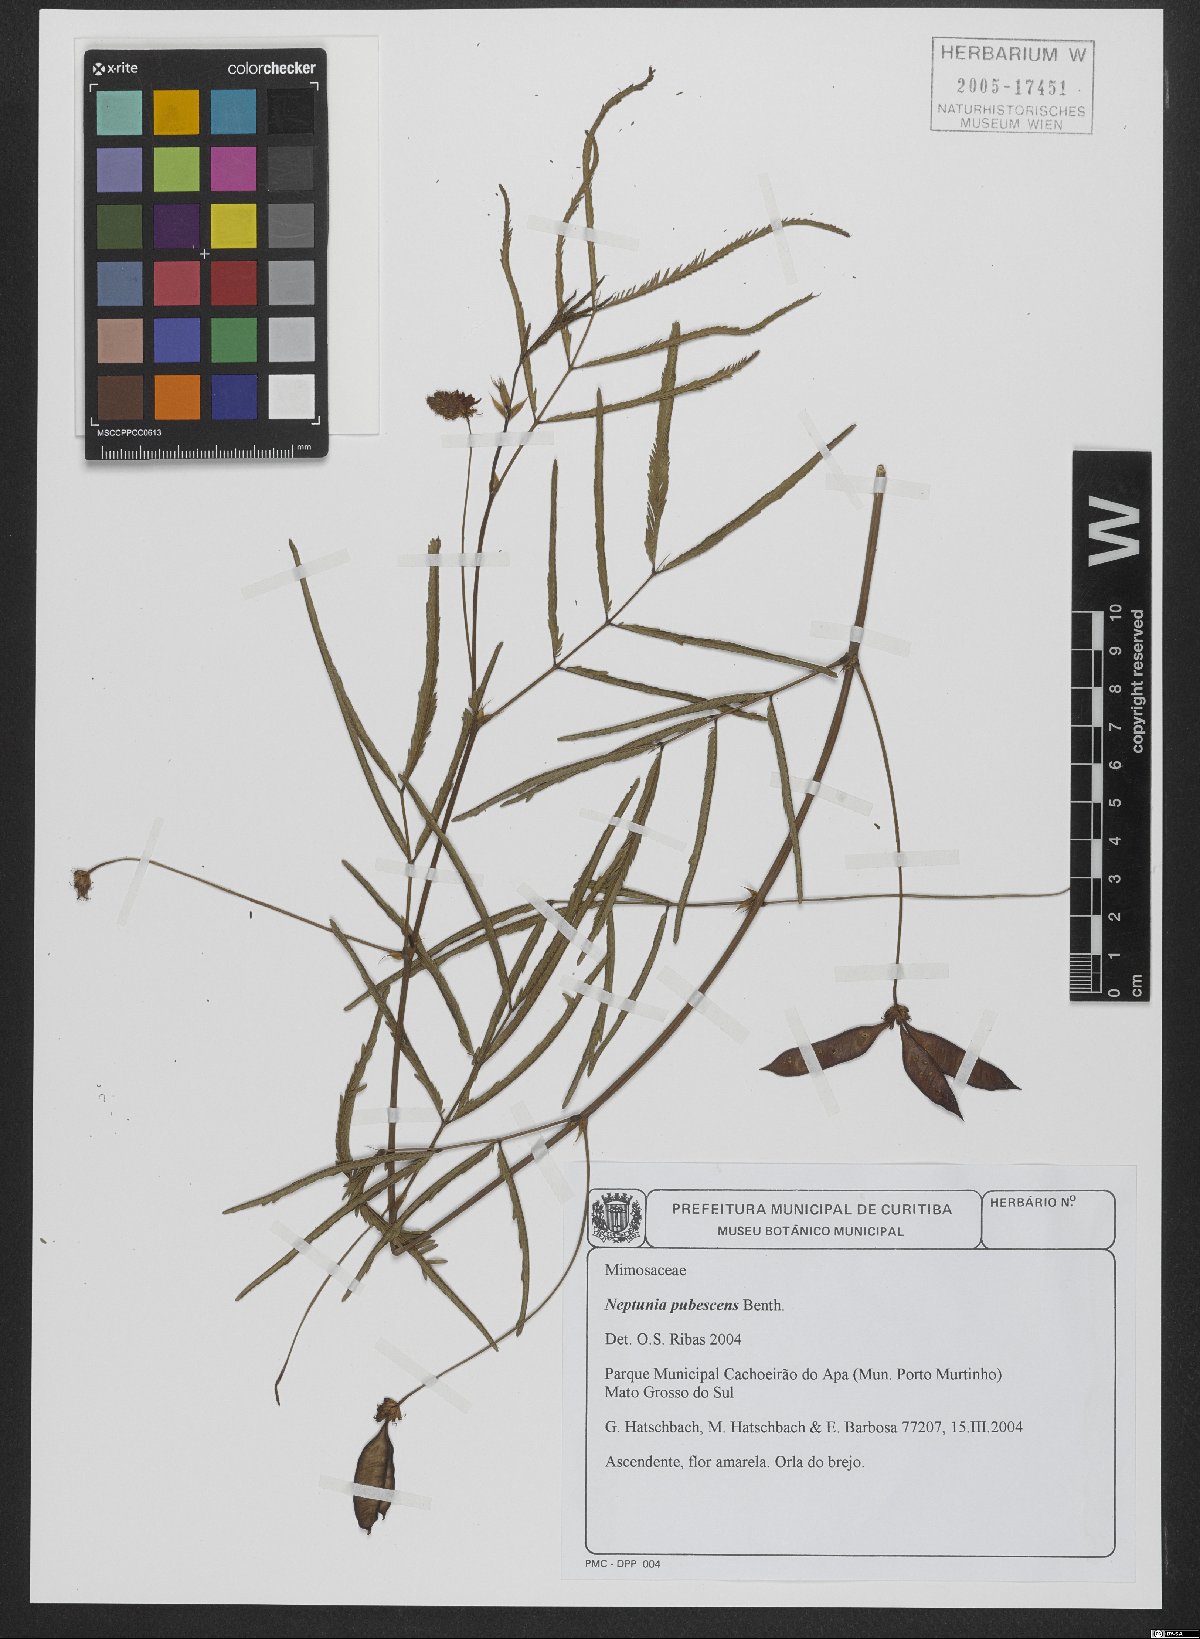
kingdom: Plantae
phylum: Tracheophyta
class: Magnoliopsida
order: Fabales
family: Fabaceae
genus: Neptunia
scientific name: Neptunia pubescens
